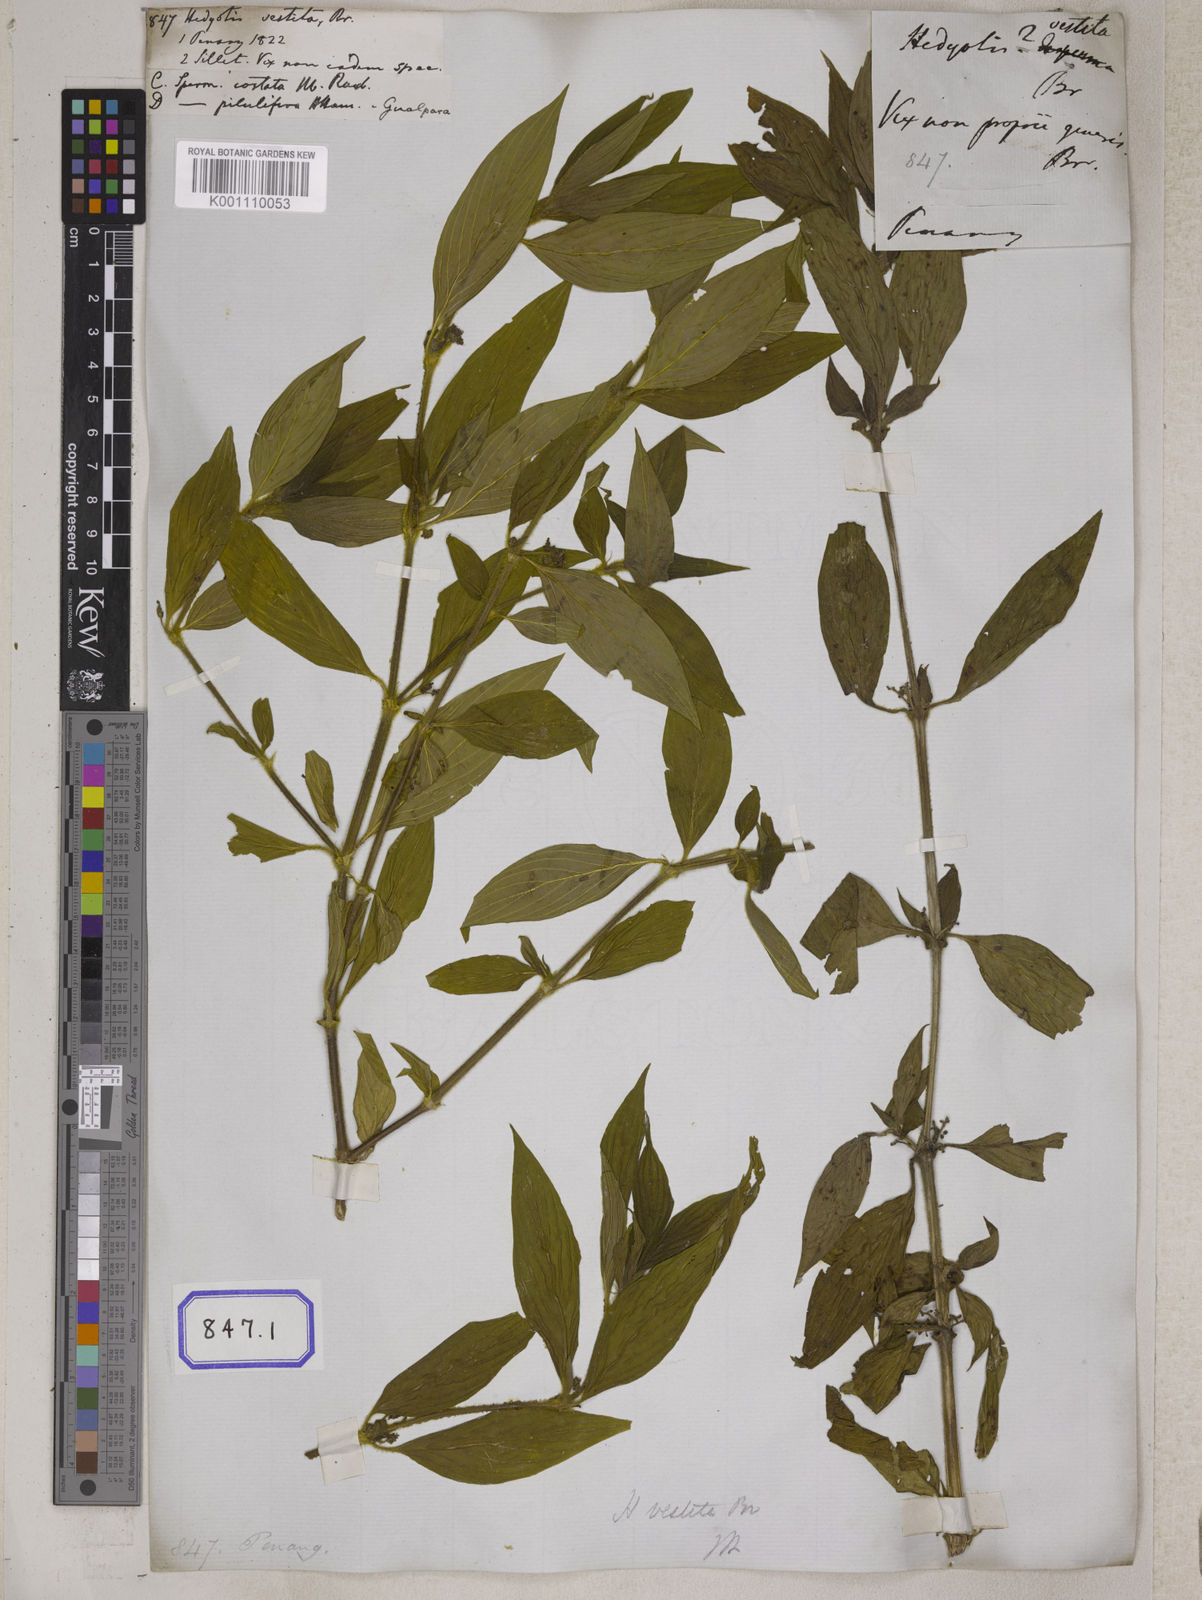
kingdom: Plantae
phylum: Tracheophyta
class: Magnoliopsida
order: Gentianales
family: Rubiaceae
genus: Hedyotis
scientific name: Hedyotis
